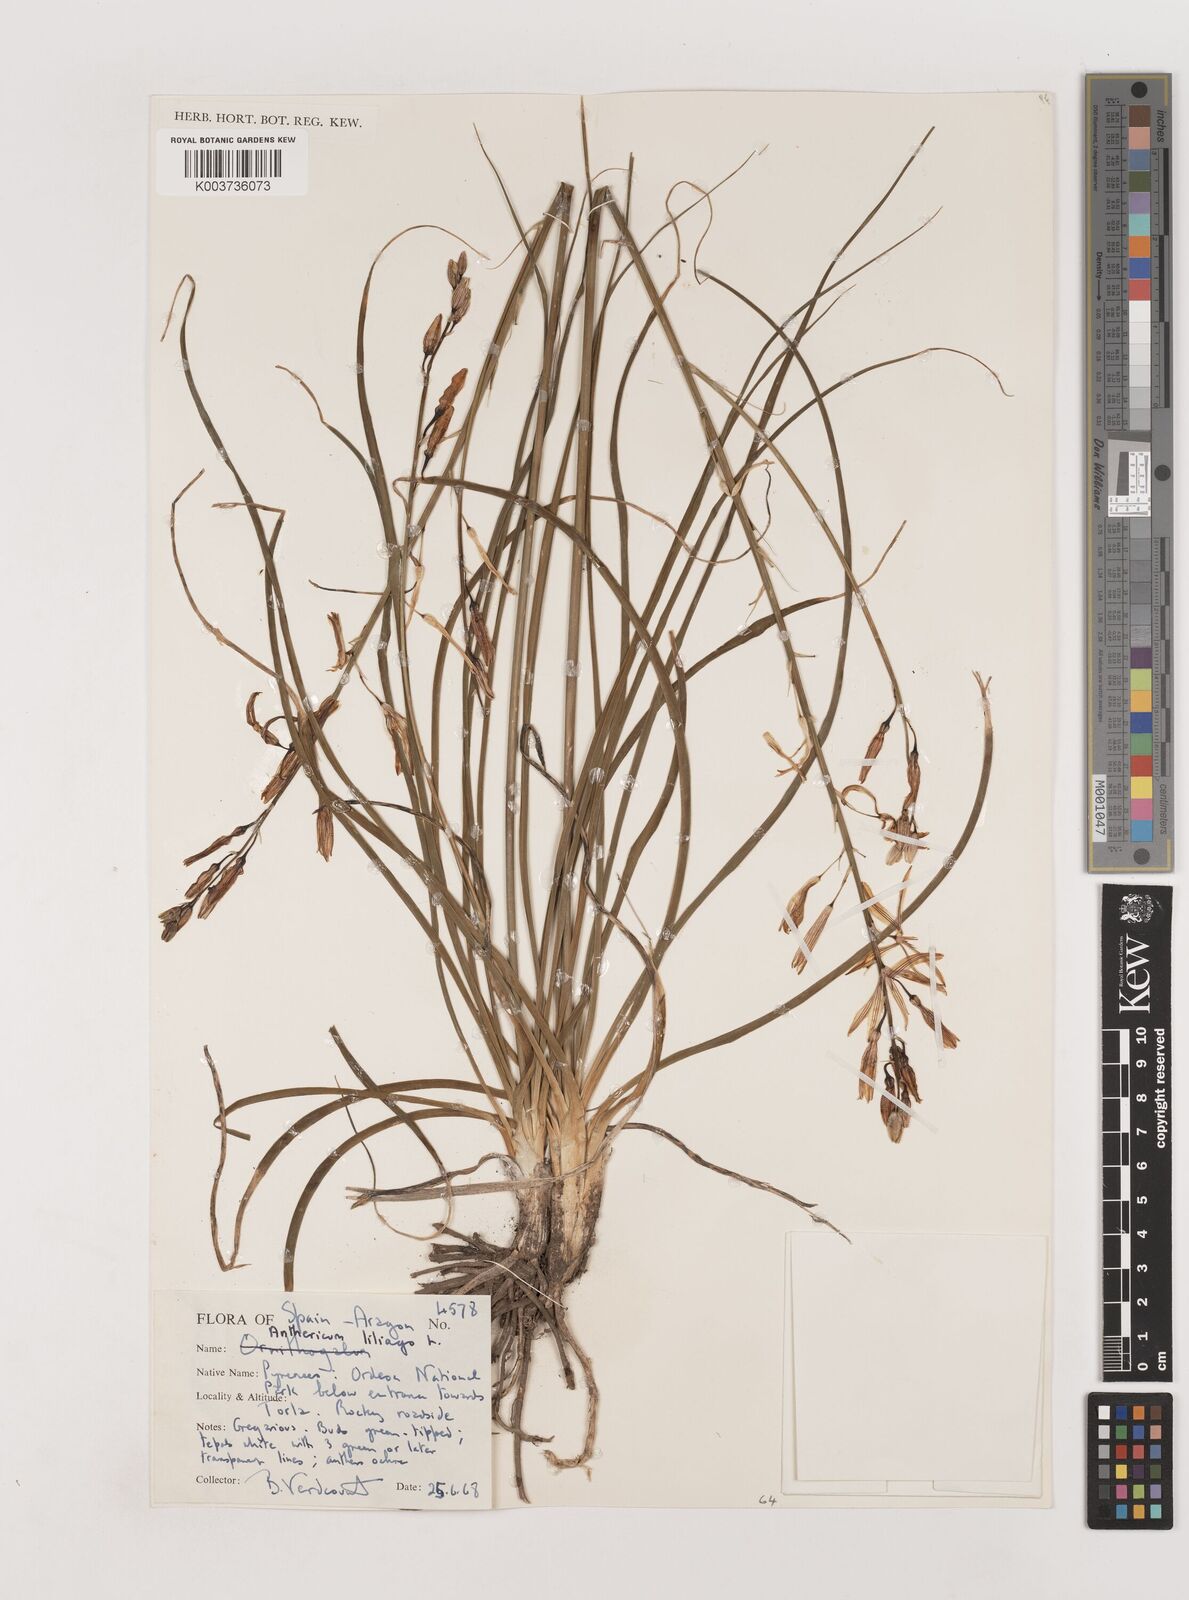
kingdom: Plantae
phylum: Tracheophyta
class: Liliopsida
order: Asparagales
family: Asparagaceae
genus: Anthericum
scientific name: Anthericum liliago
